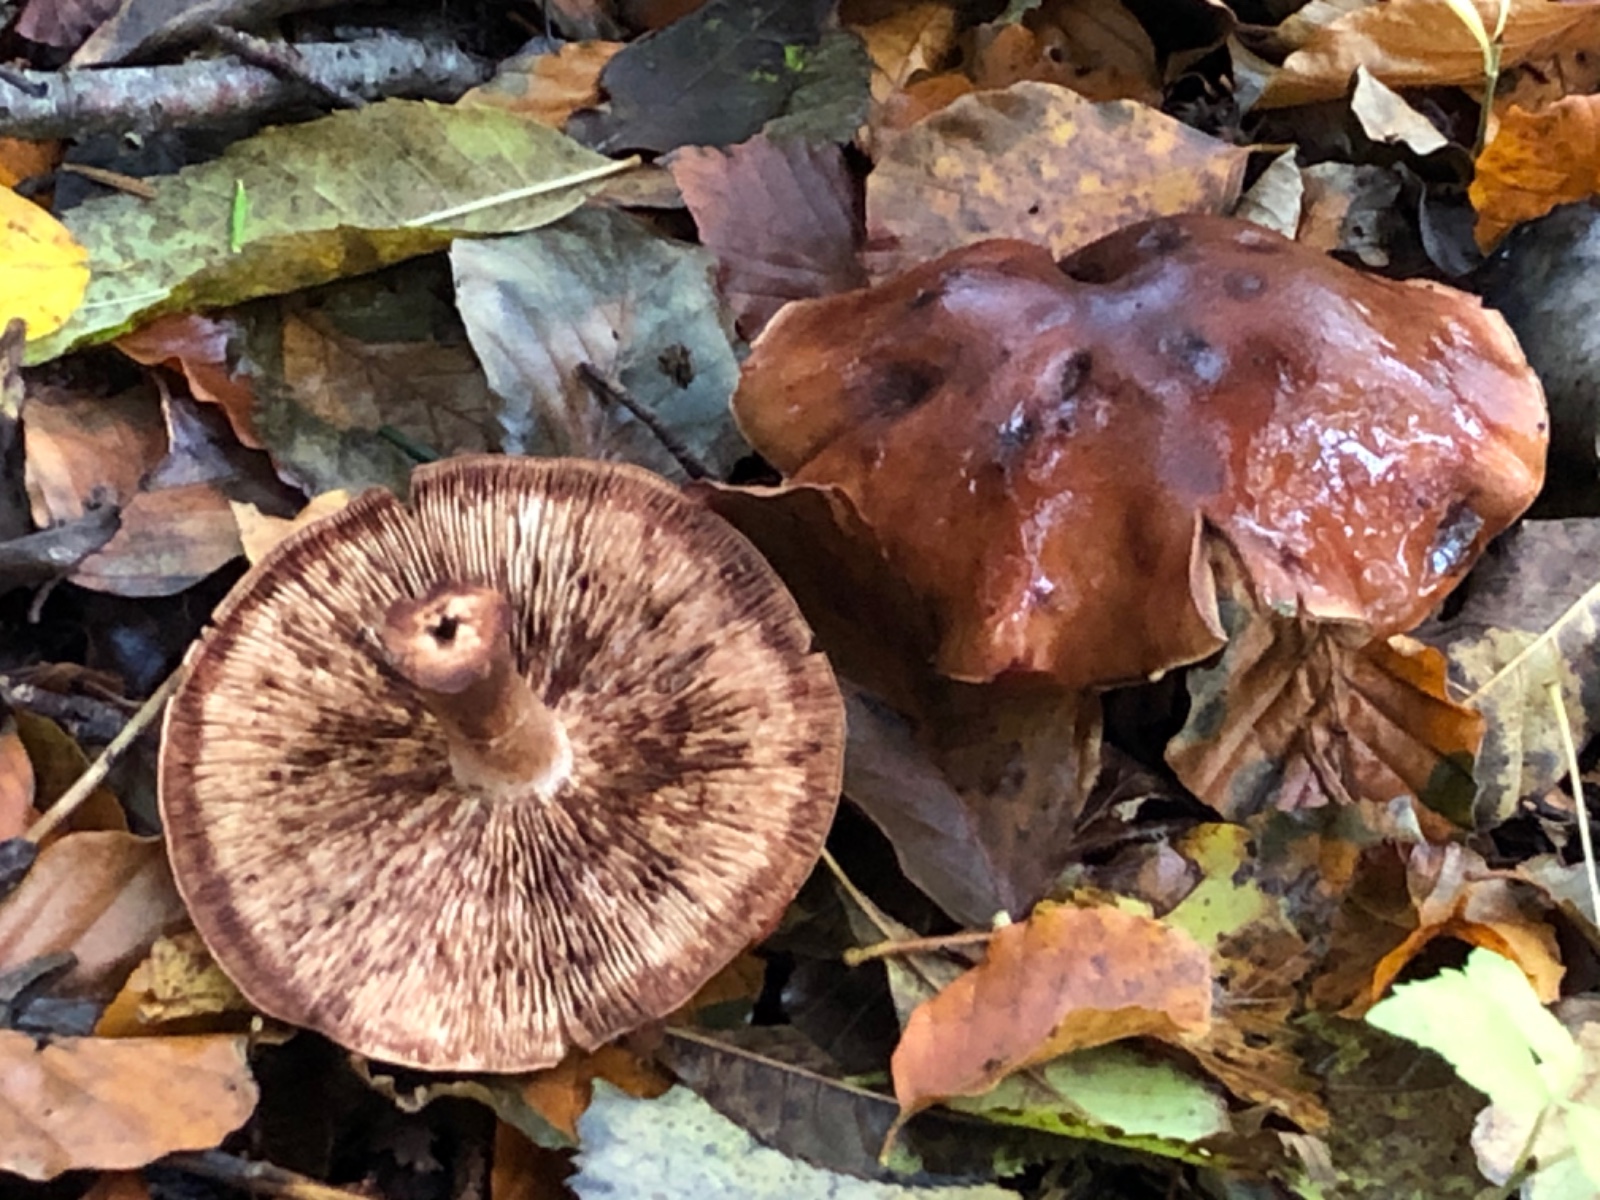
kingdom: Fungi
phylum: Basidiomycota
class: Agaricomycetes
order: Agaricales
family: Tricholomataceae
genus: Tricholoma
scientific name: Tricholoma ustale
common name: sveden ridderhat
